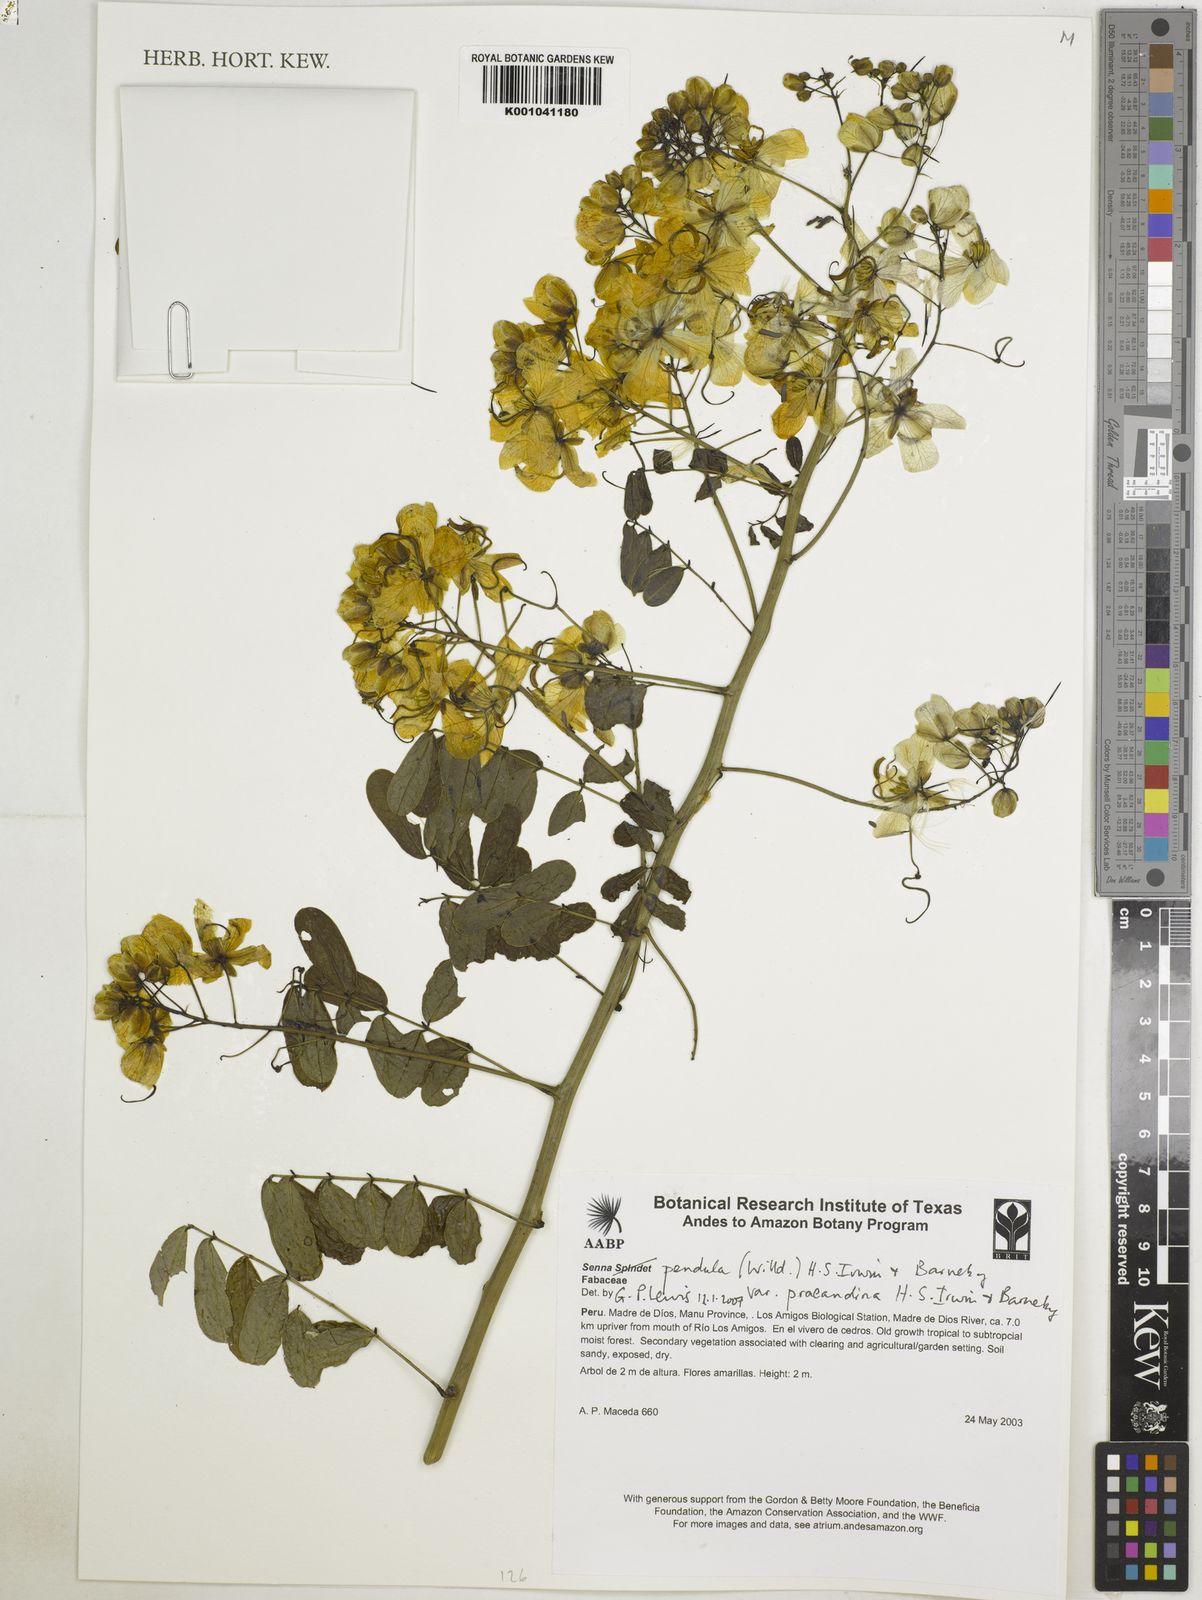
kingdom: Plantae
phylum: Tracheophyta
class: Magnoliopsida
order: Fabales
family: Fabaceae
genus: Senna
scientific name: Senna pendula
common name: Easter cassia
